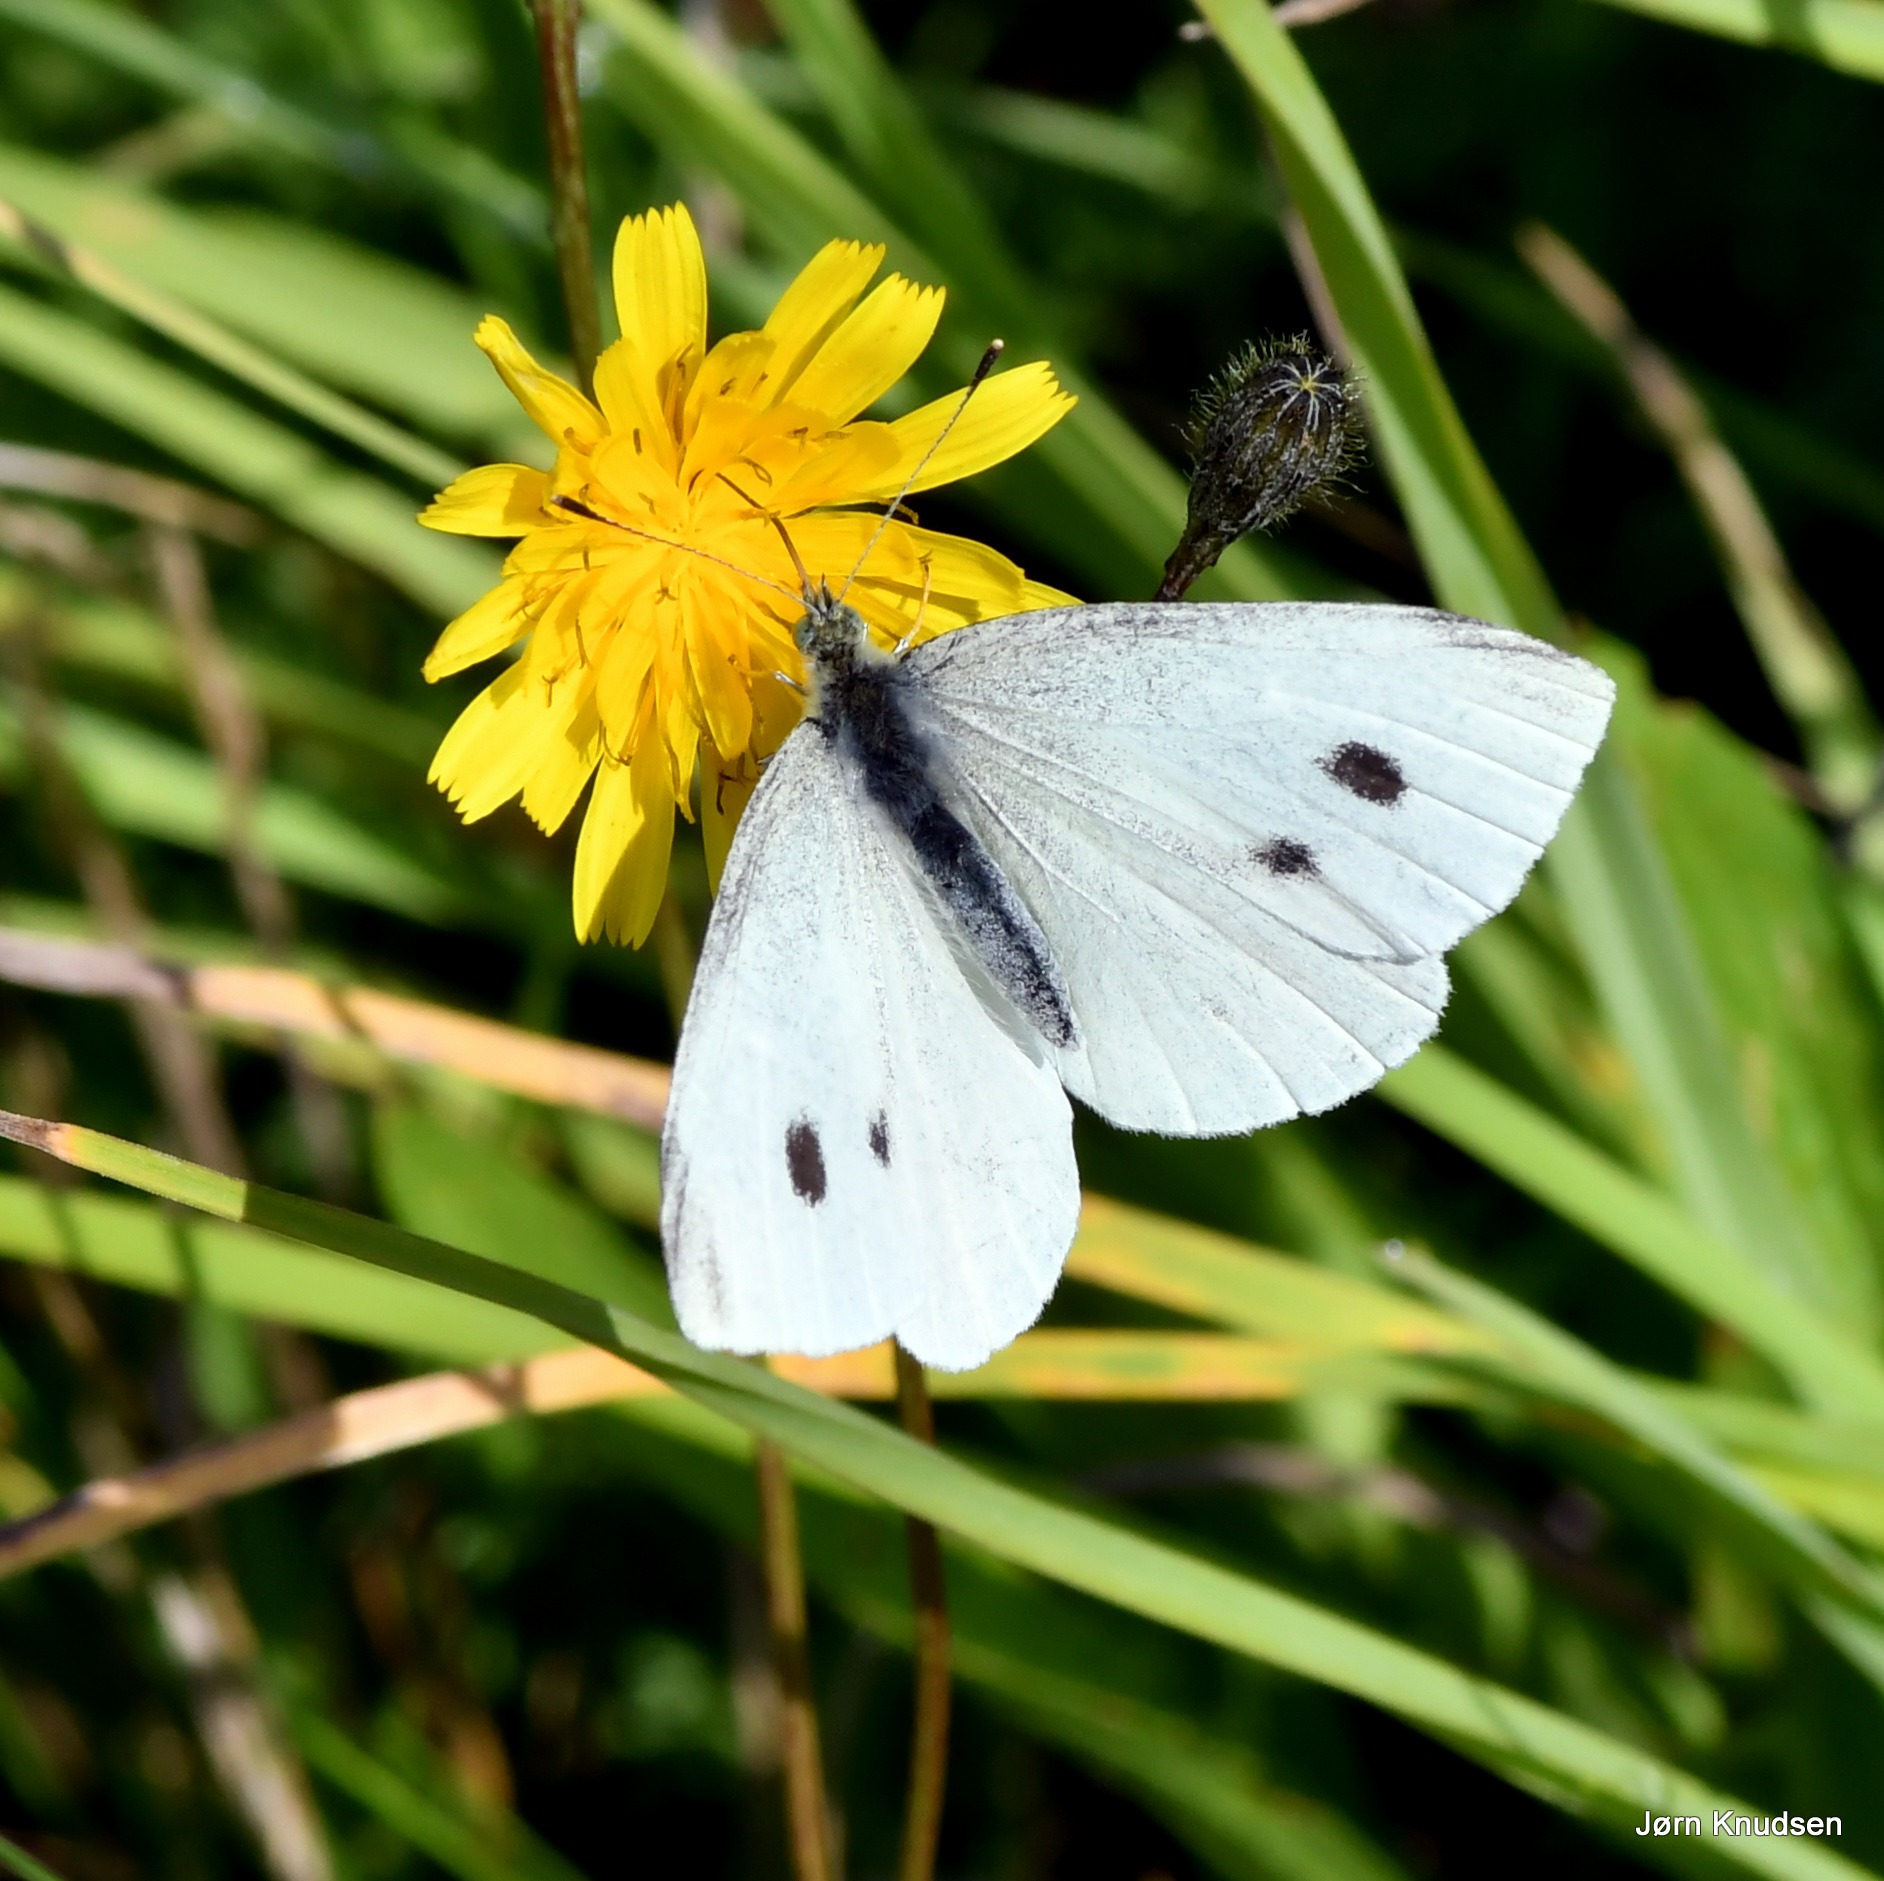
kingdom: Animalia
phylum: Arthropoda
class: Insecta
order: Lepidoptera
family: Pieridae
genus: Pieris
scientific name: Pieris rapae
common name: Lille kålsommerfugl
